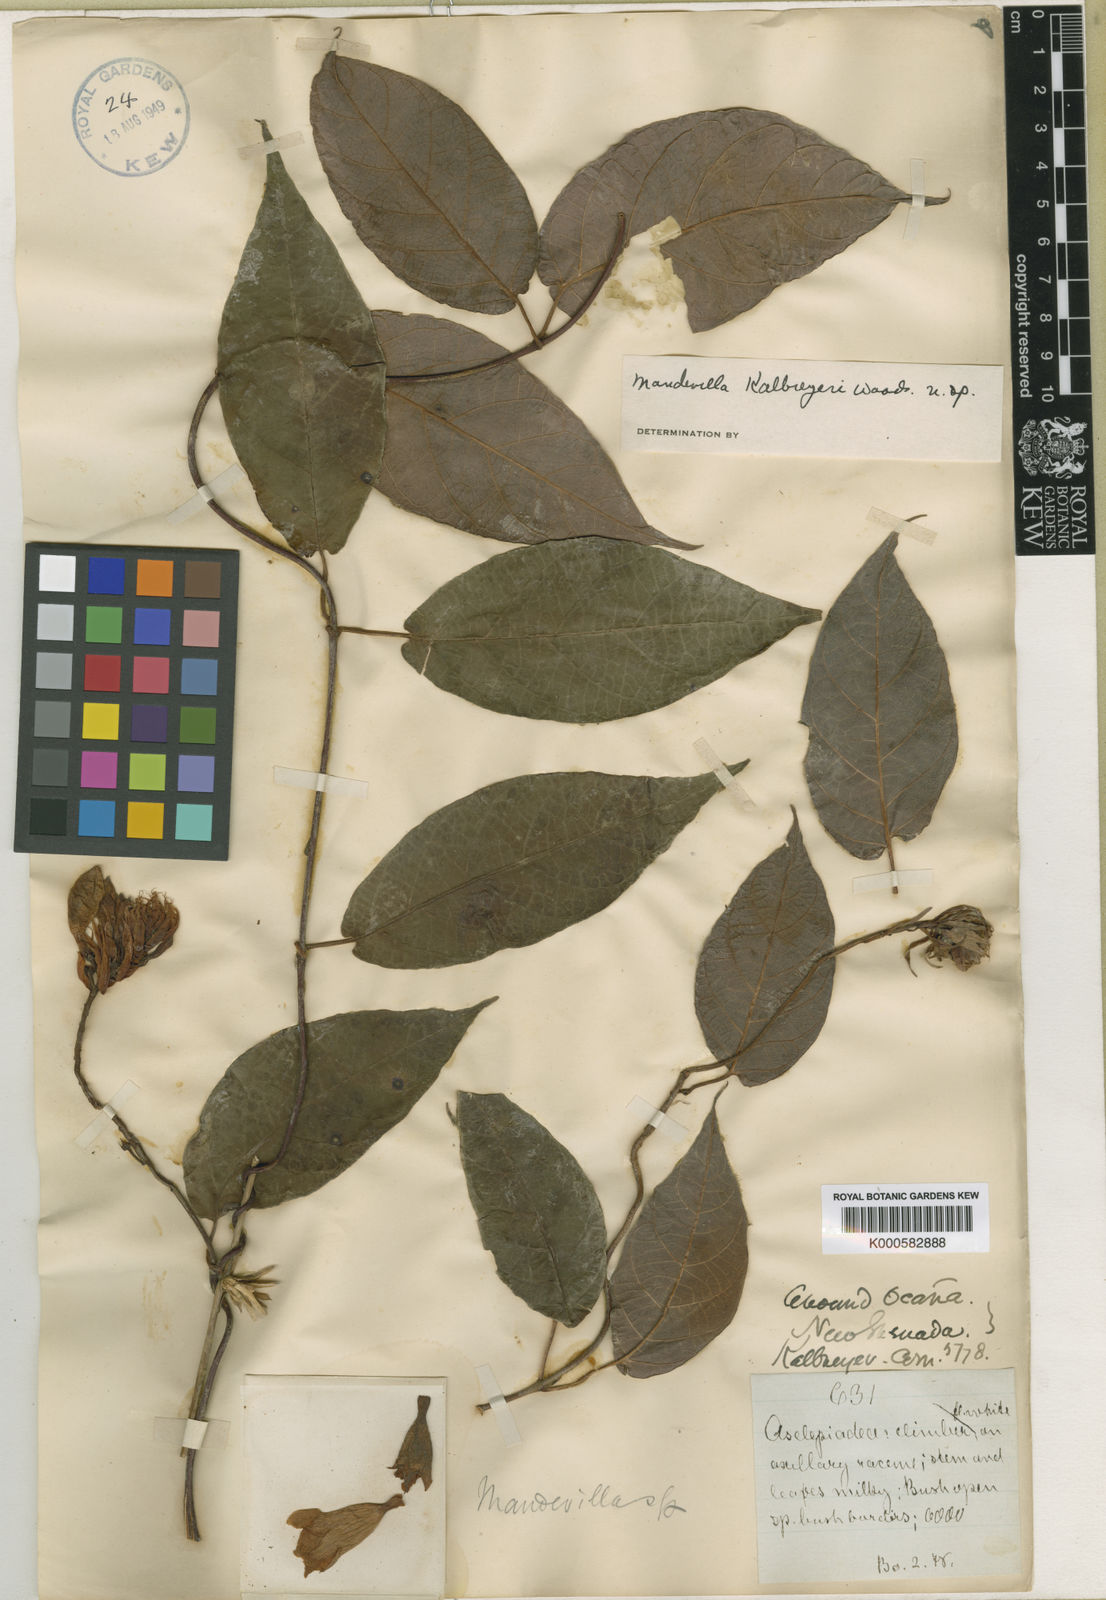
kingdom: Plantae
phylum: Tracheophyta
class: Magnoliopsida
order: Gentianales
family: Apocynaceae
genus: Mandevilla
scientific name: Mandevilla
